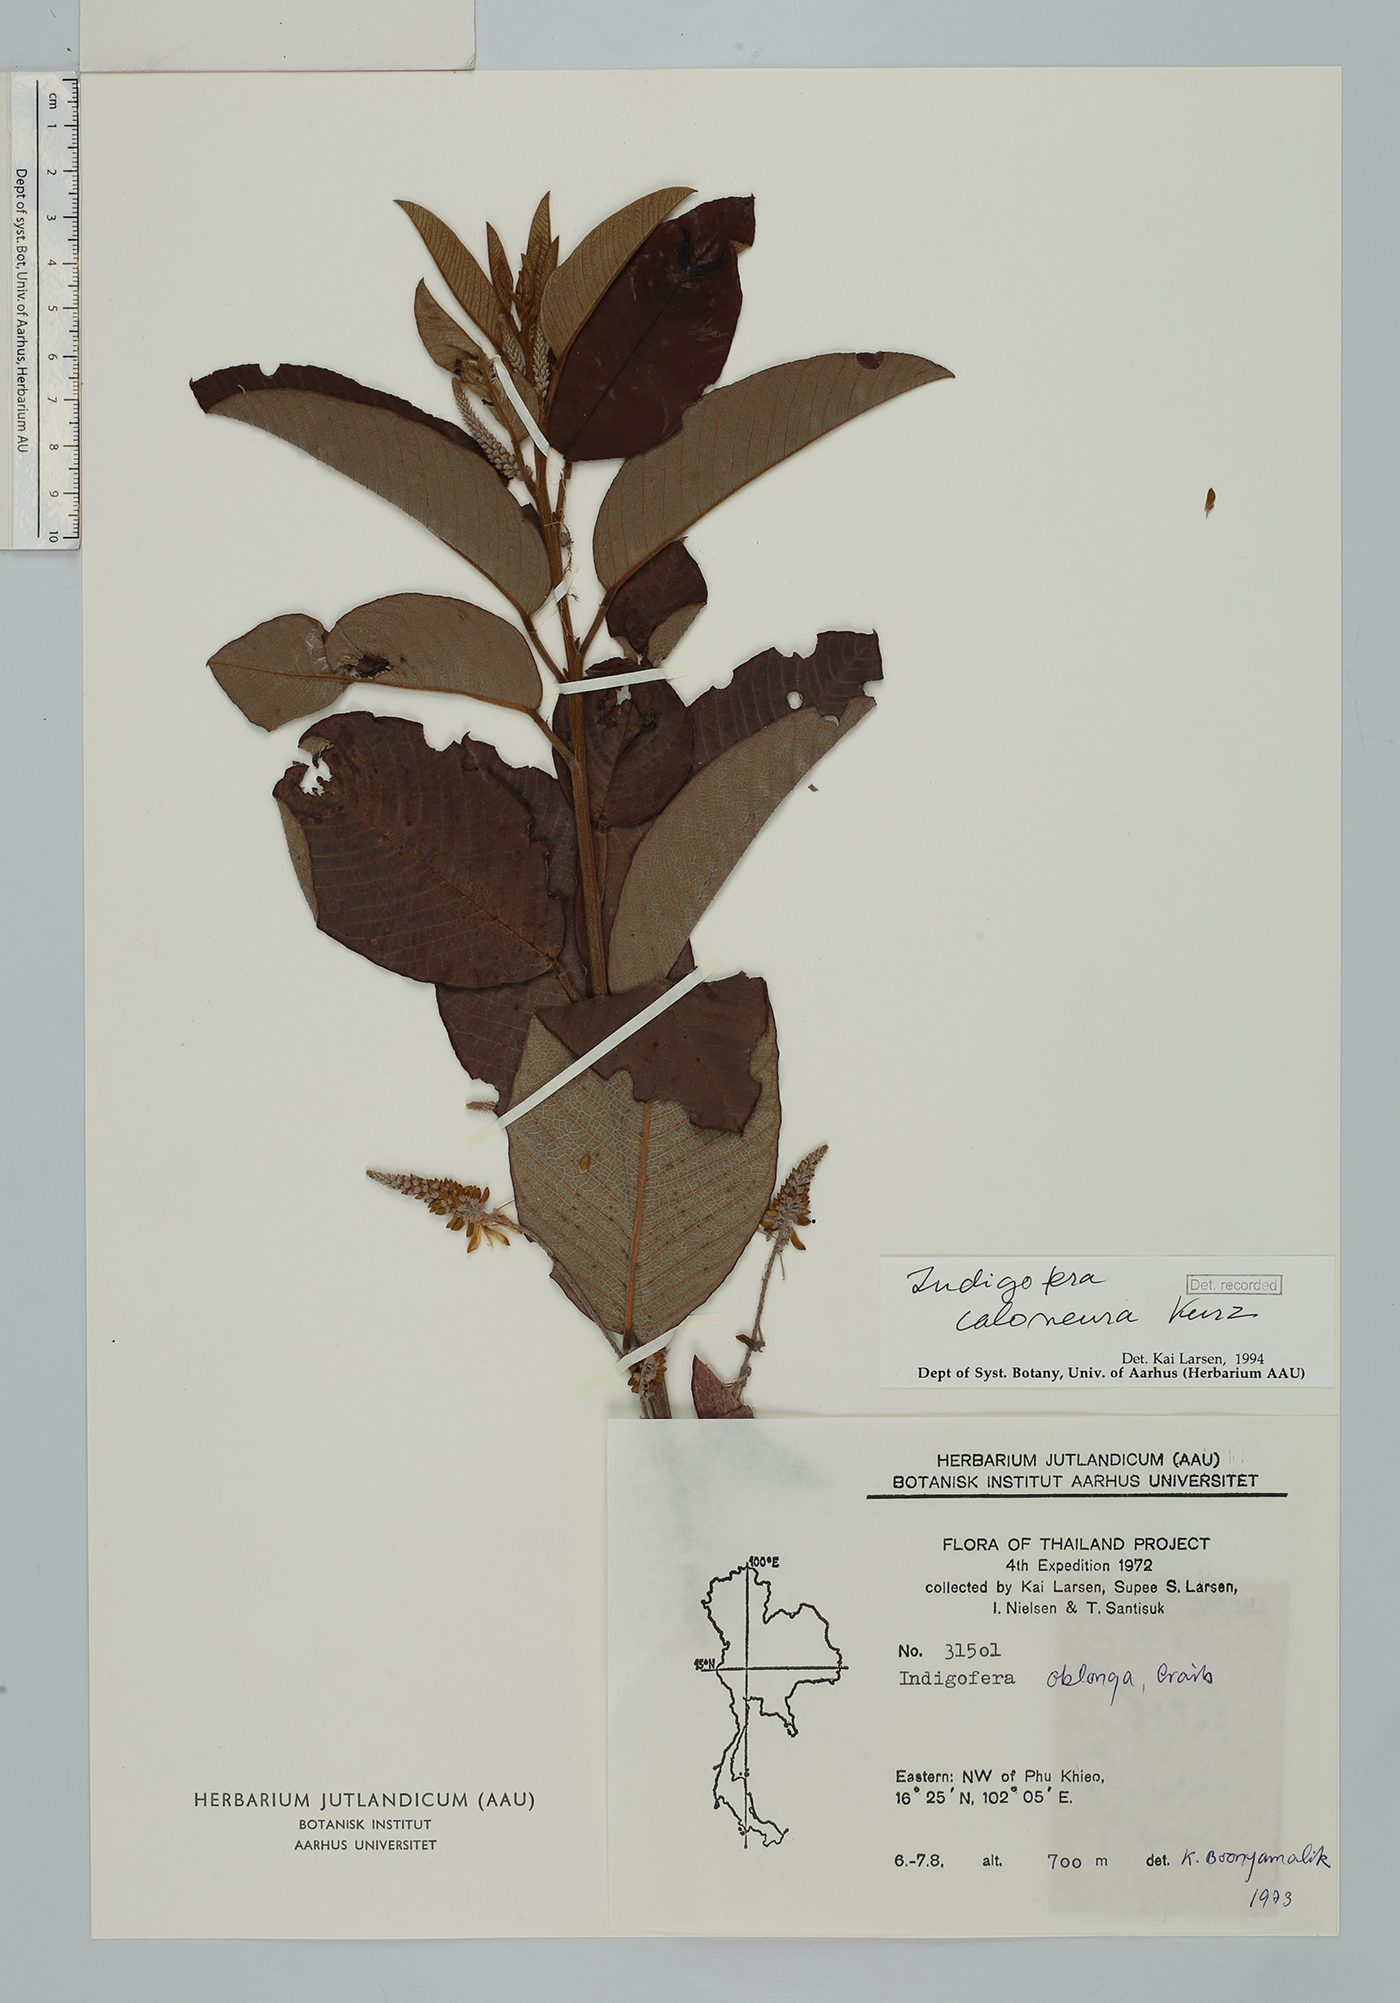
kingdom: Plantae
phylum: Tracheophyta
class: Magnoliopsida
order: Fabales
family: Fabaceae
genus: Indigofera
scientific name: Indigofera caloneura
